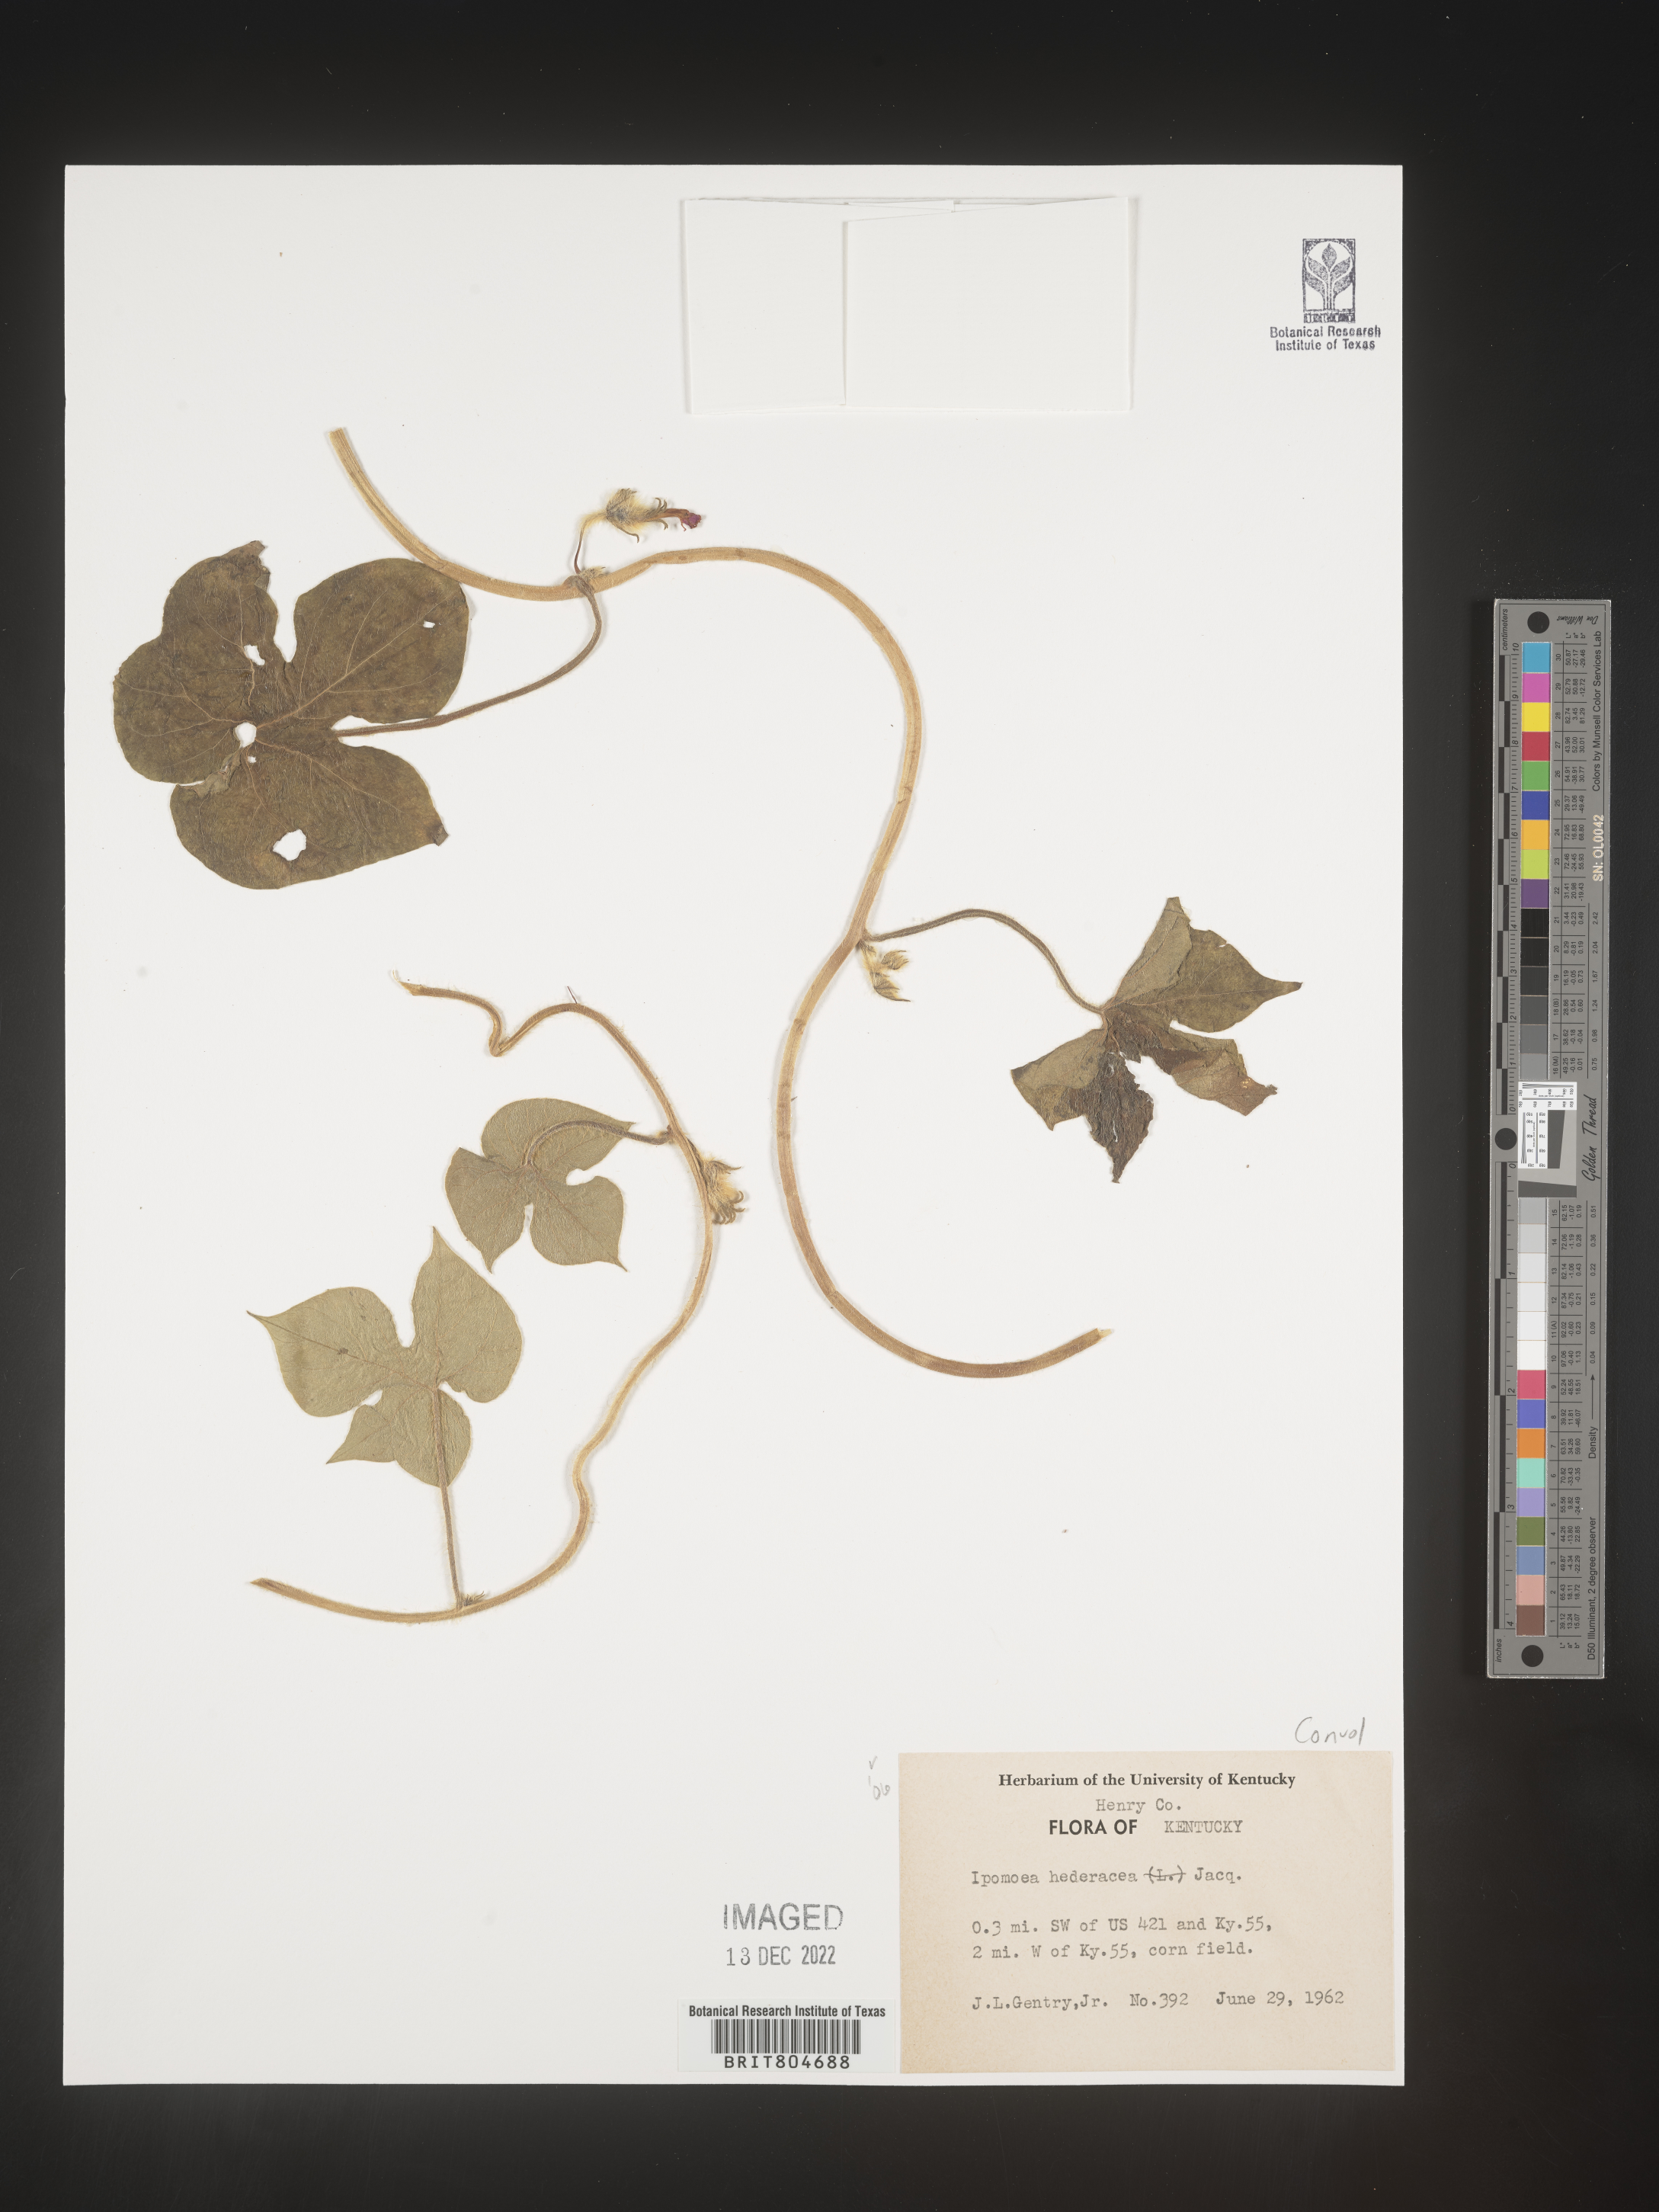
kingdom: Plantae
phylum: Tracheophyta
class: Magnoliopsida
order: Solanales
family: Convolvulaceae
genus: Ipomoea
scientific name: Ipomoea hederacea
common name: Ivy-leaved morning-glory
